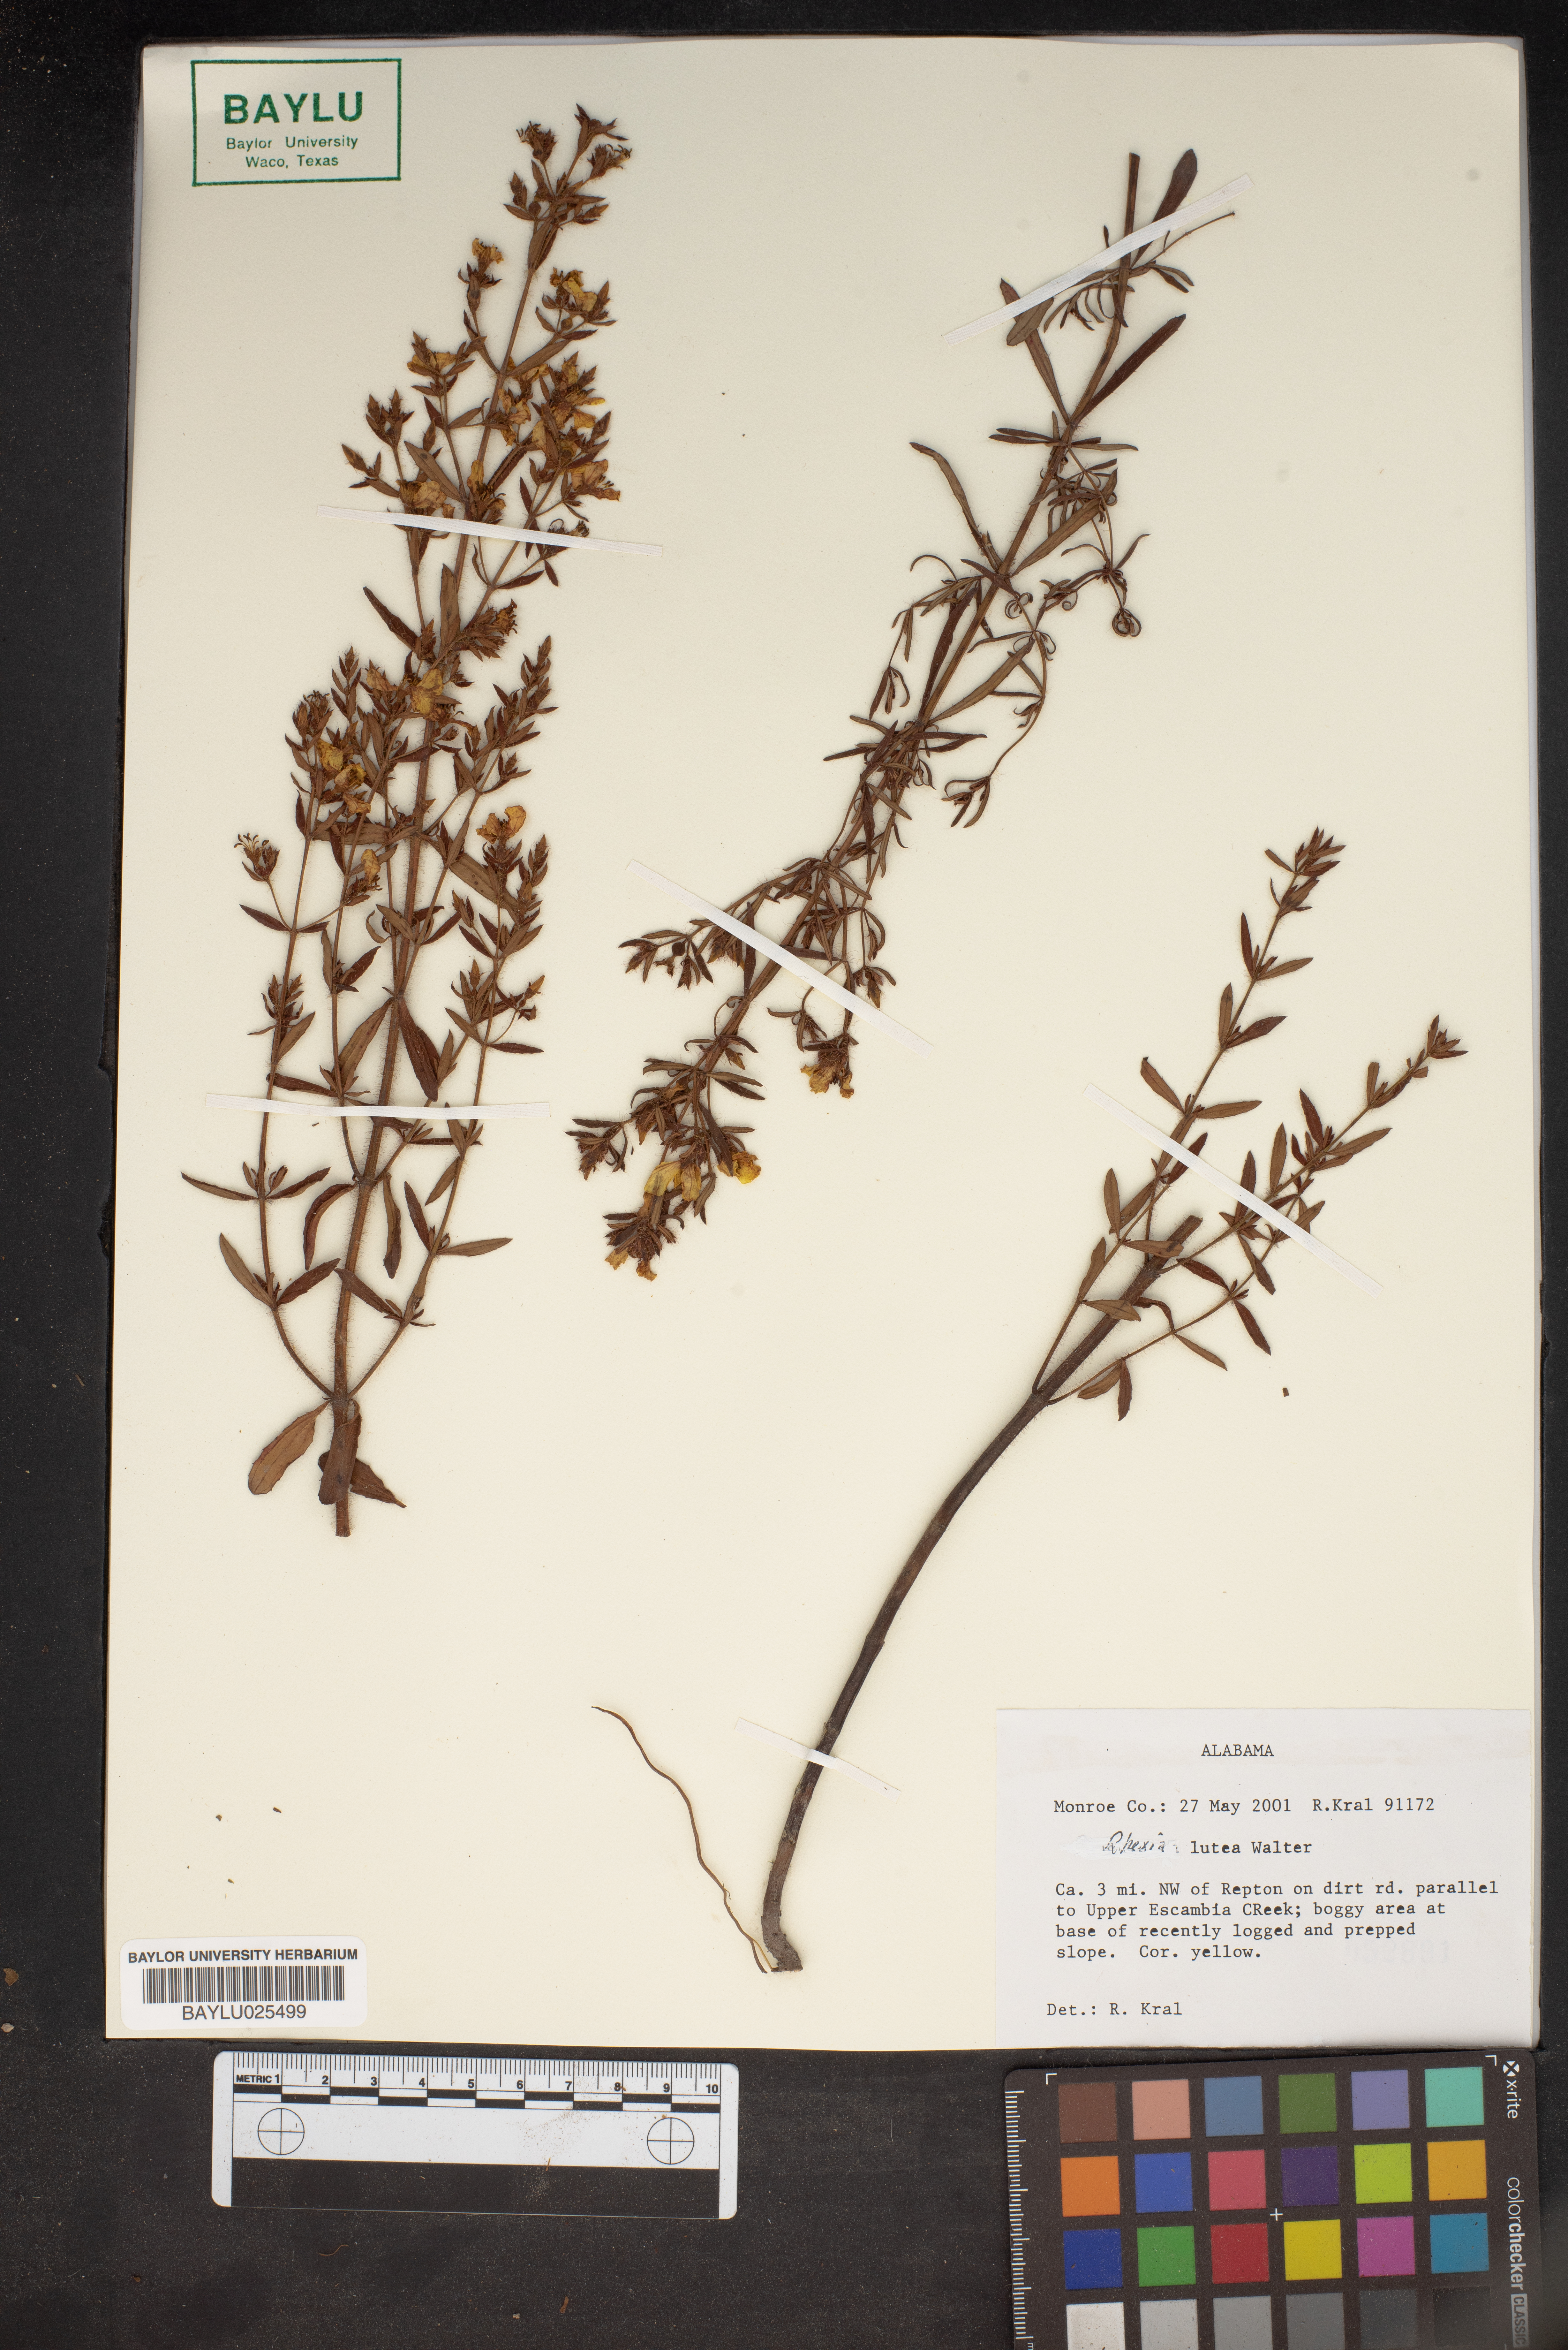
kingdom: Plantae
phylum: Tracheophyta
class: Magnoliopsida
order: Myrtales
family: Melastomataceae
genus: Rhexia
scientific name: Rhexia lutea
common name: Golden meadow-beauty
